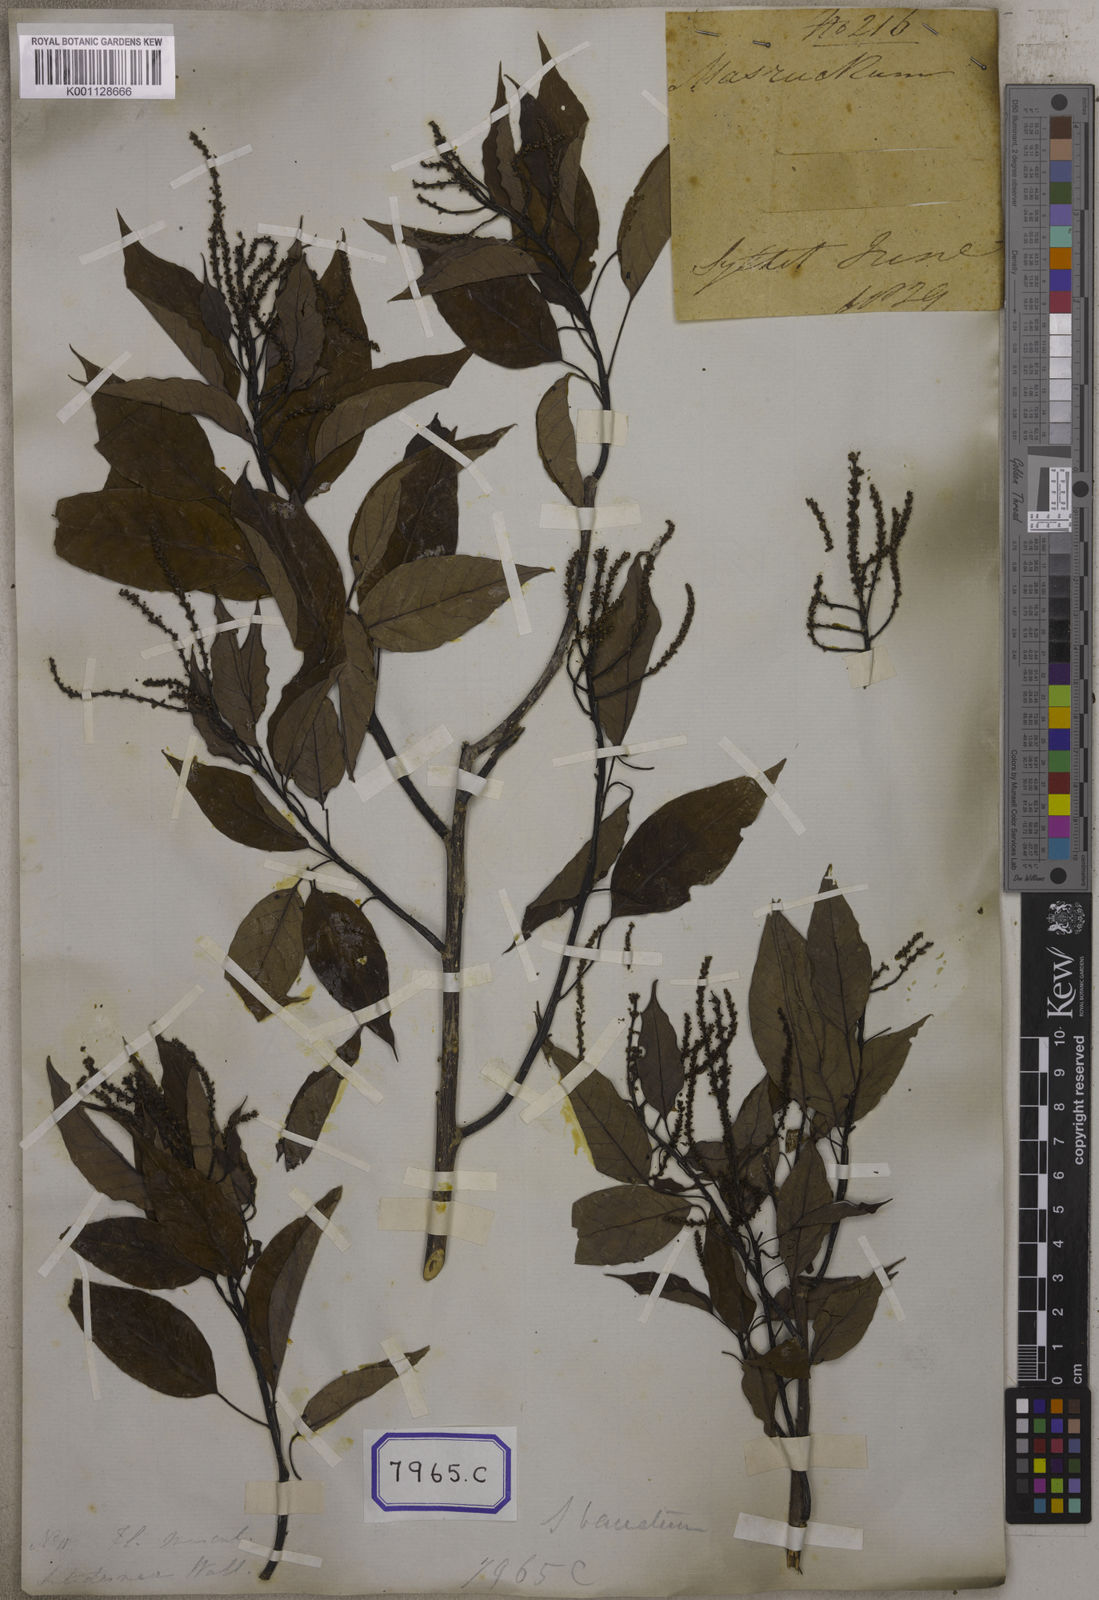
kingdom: Plantae
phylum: Tracheophyta
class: Magnoliopsida
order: Malpighiales
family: Euphorbiaceae
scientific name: Euphorbiaceae
